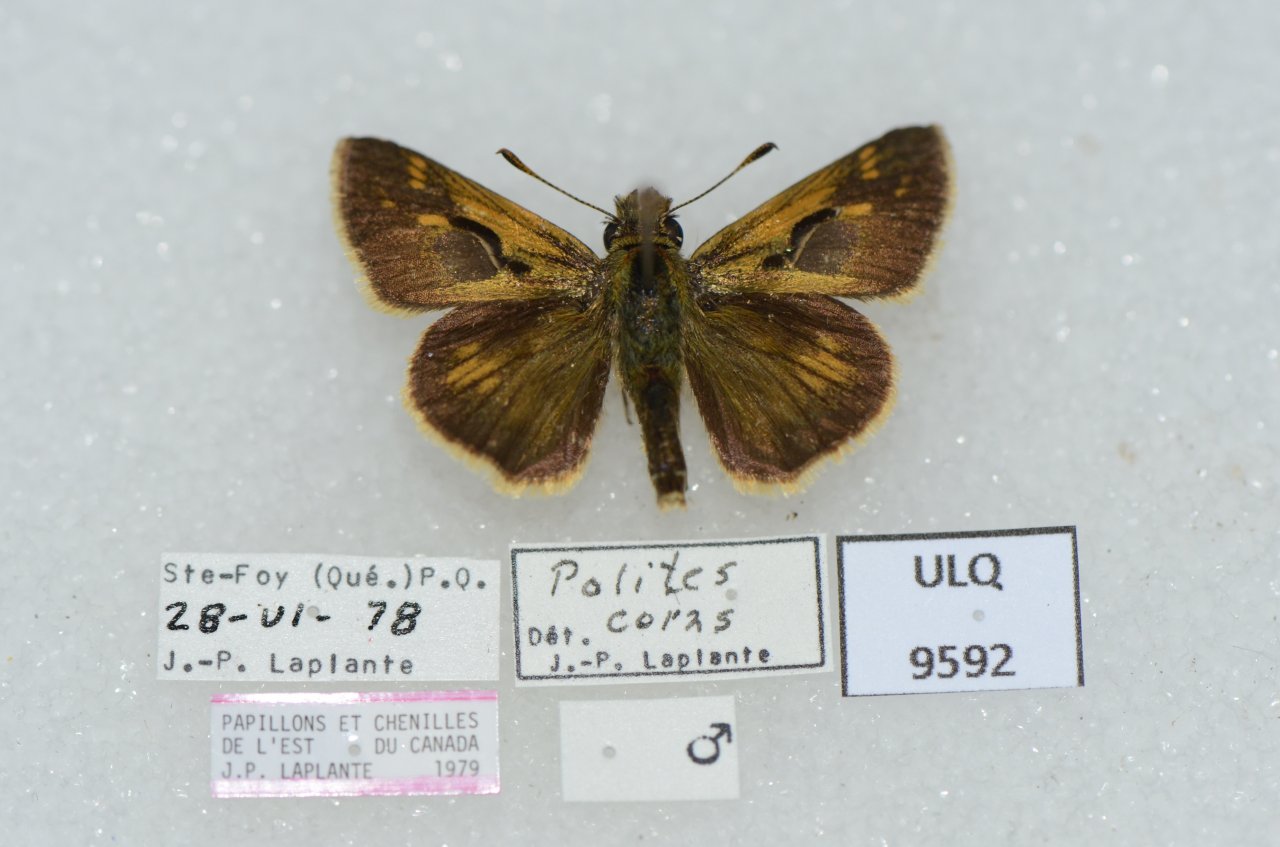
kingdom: Animalia
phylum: Arthropoda
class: Insecta
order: Lepidoptera
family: Hesperiidae
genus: Polites
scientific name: Polites coras
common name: Peck's Skipper
